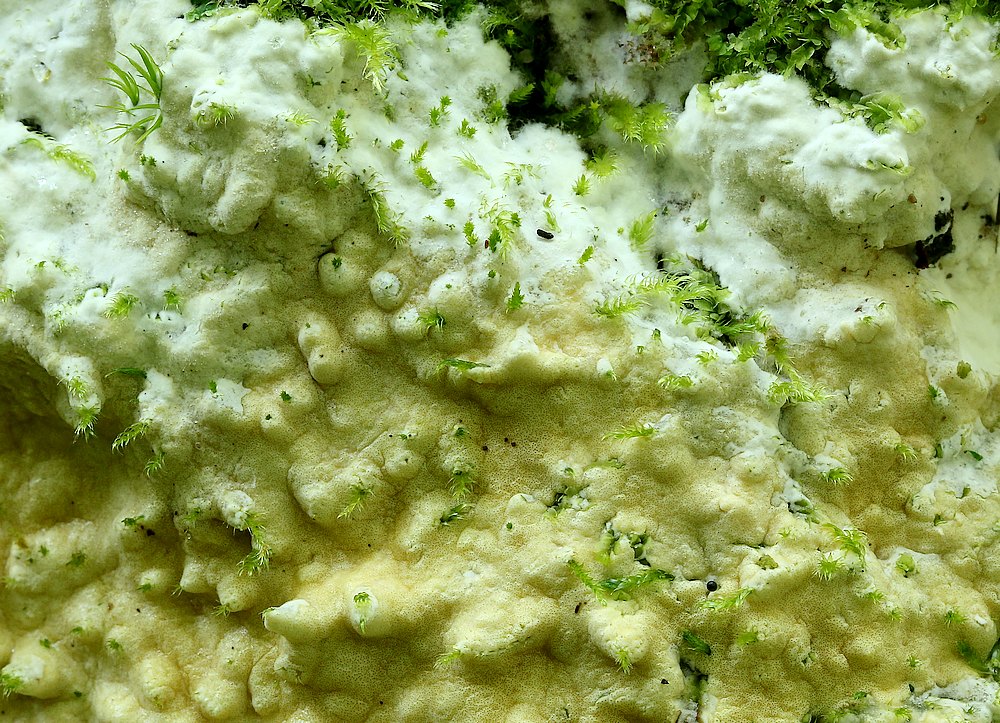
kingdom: Fungi
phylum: Ascomycota
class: Sordariomycetes
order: Hypocreales
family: Hypocreaceae
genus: Trichoderma
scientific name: Trichoderma citrinum
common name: udbredt kødkerne
